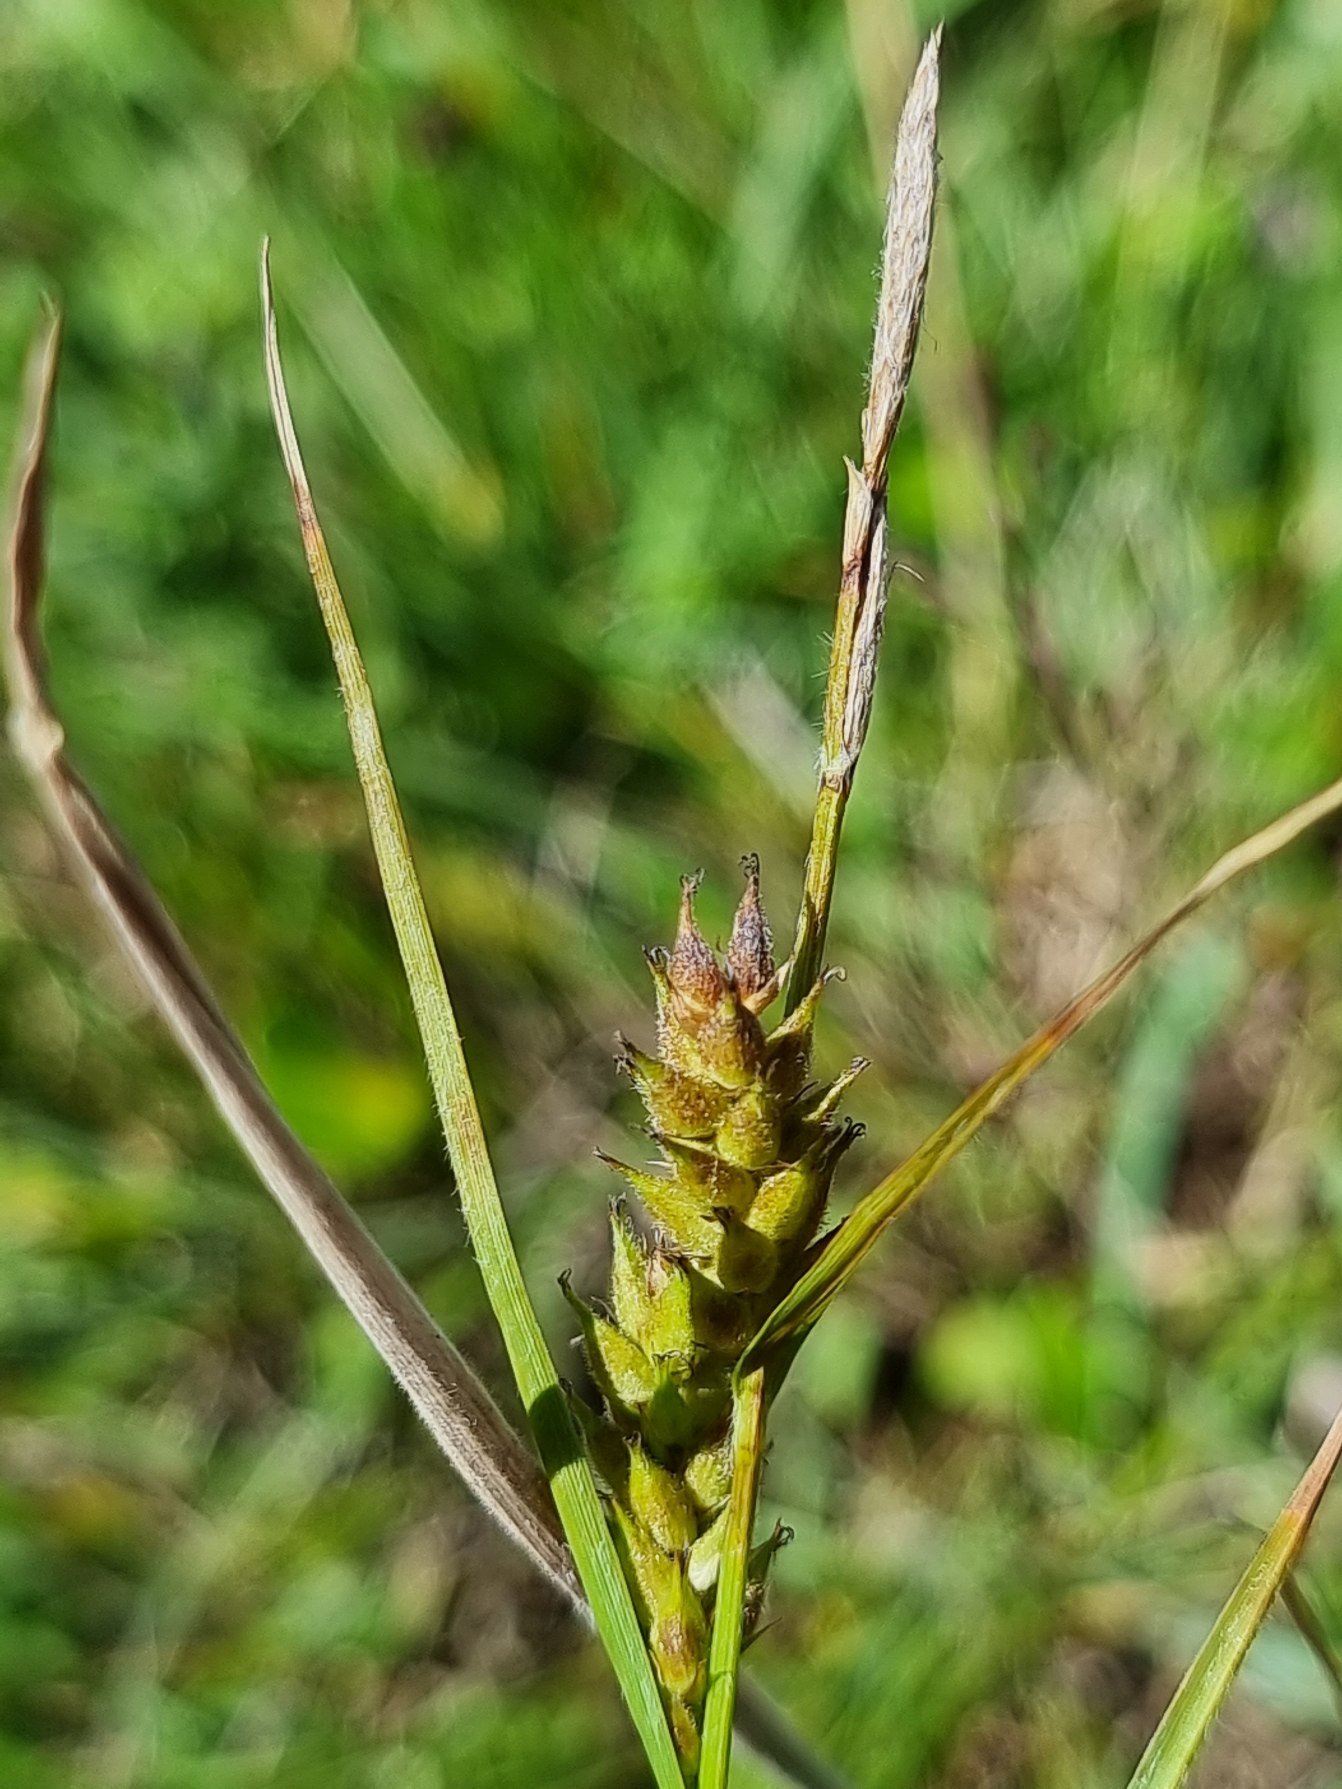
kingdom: Plantae
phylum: Tracheophyta
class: Liliopsida
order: Poales
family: Cyperaceae
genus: Carex
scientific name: Carex hirta
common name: Håret star
